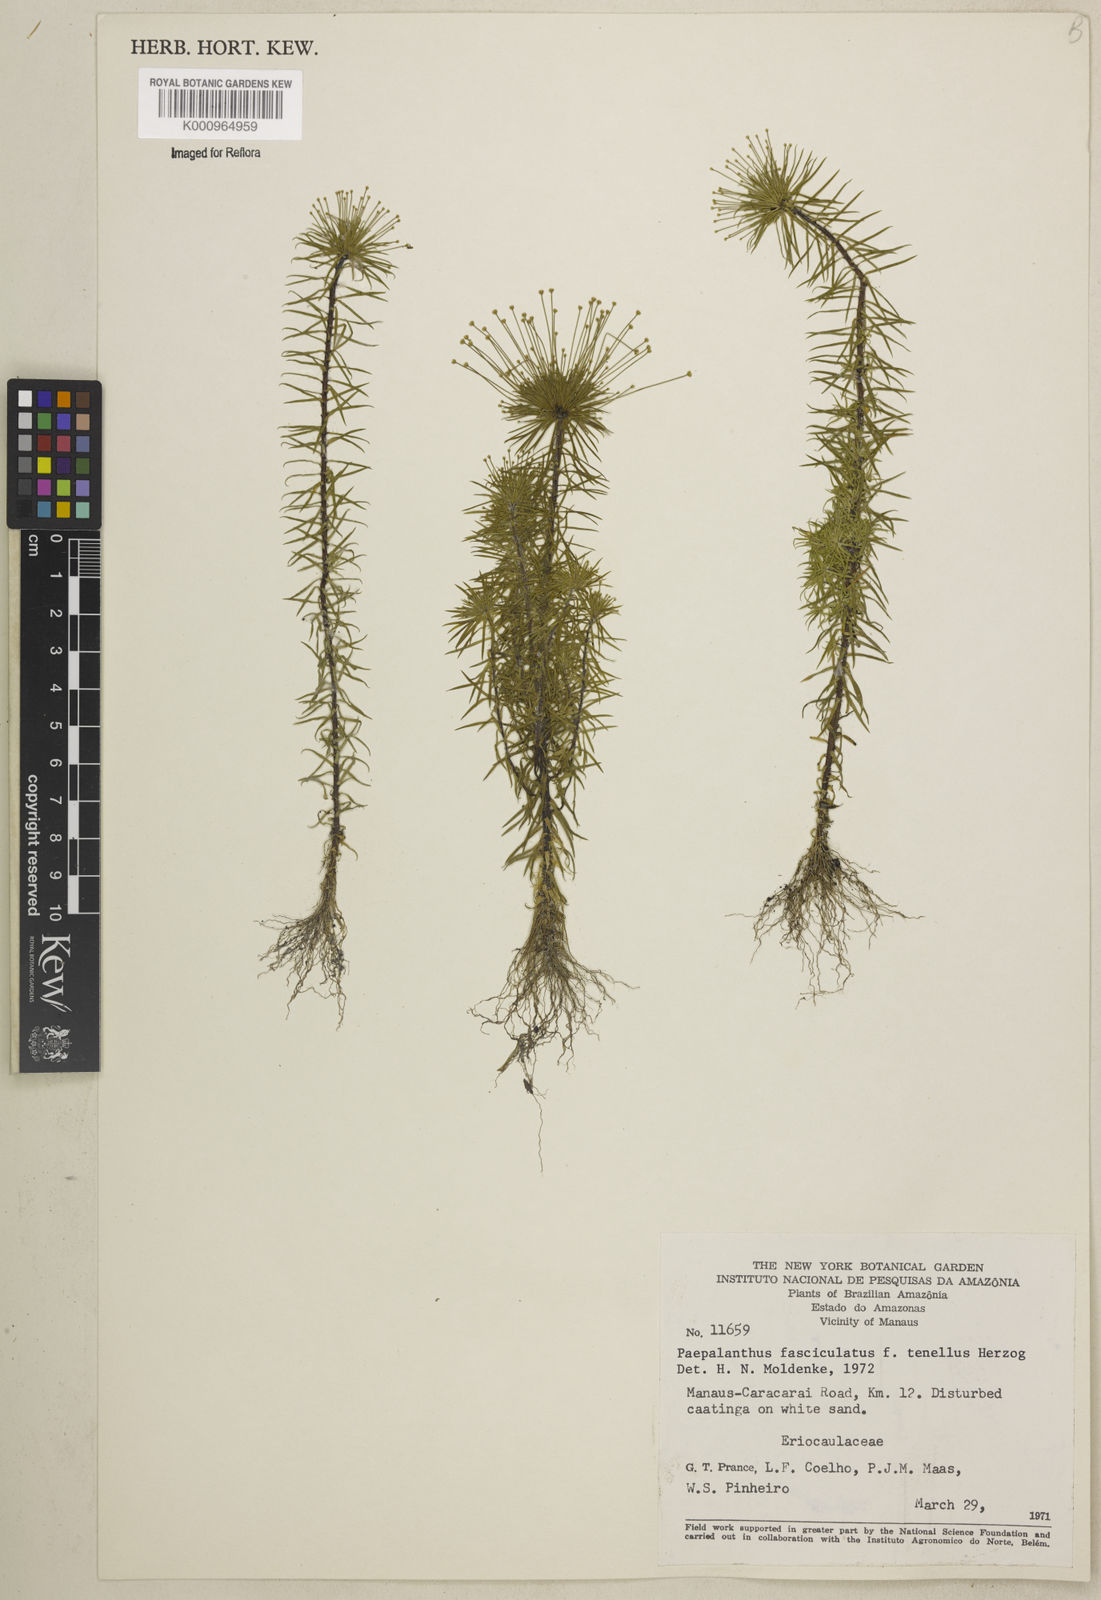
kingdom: Plantae
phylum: Tracheophyta
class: Liliopsida
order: Poales
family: Eriocaulaceae
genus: Paepalanthus
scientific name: Paepalanthus fasciculatus
